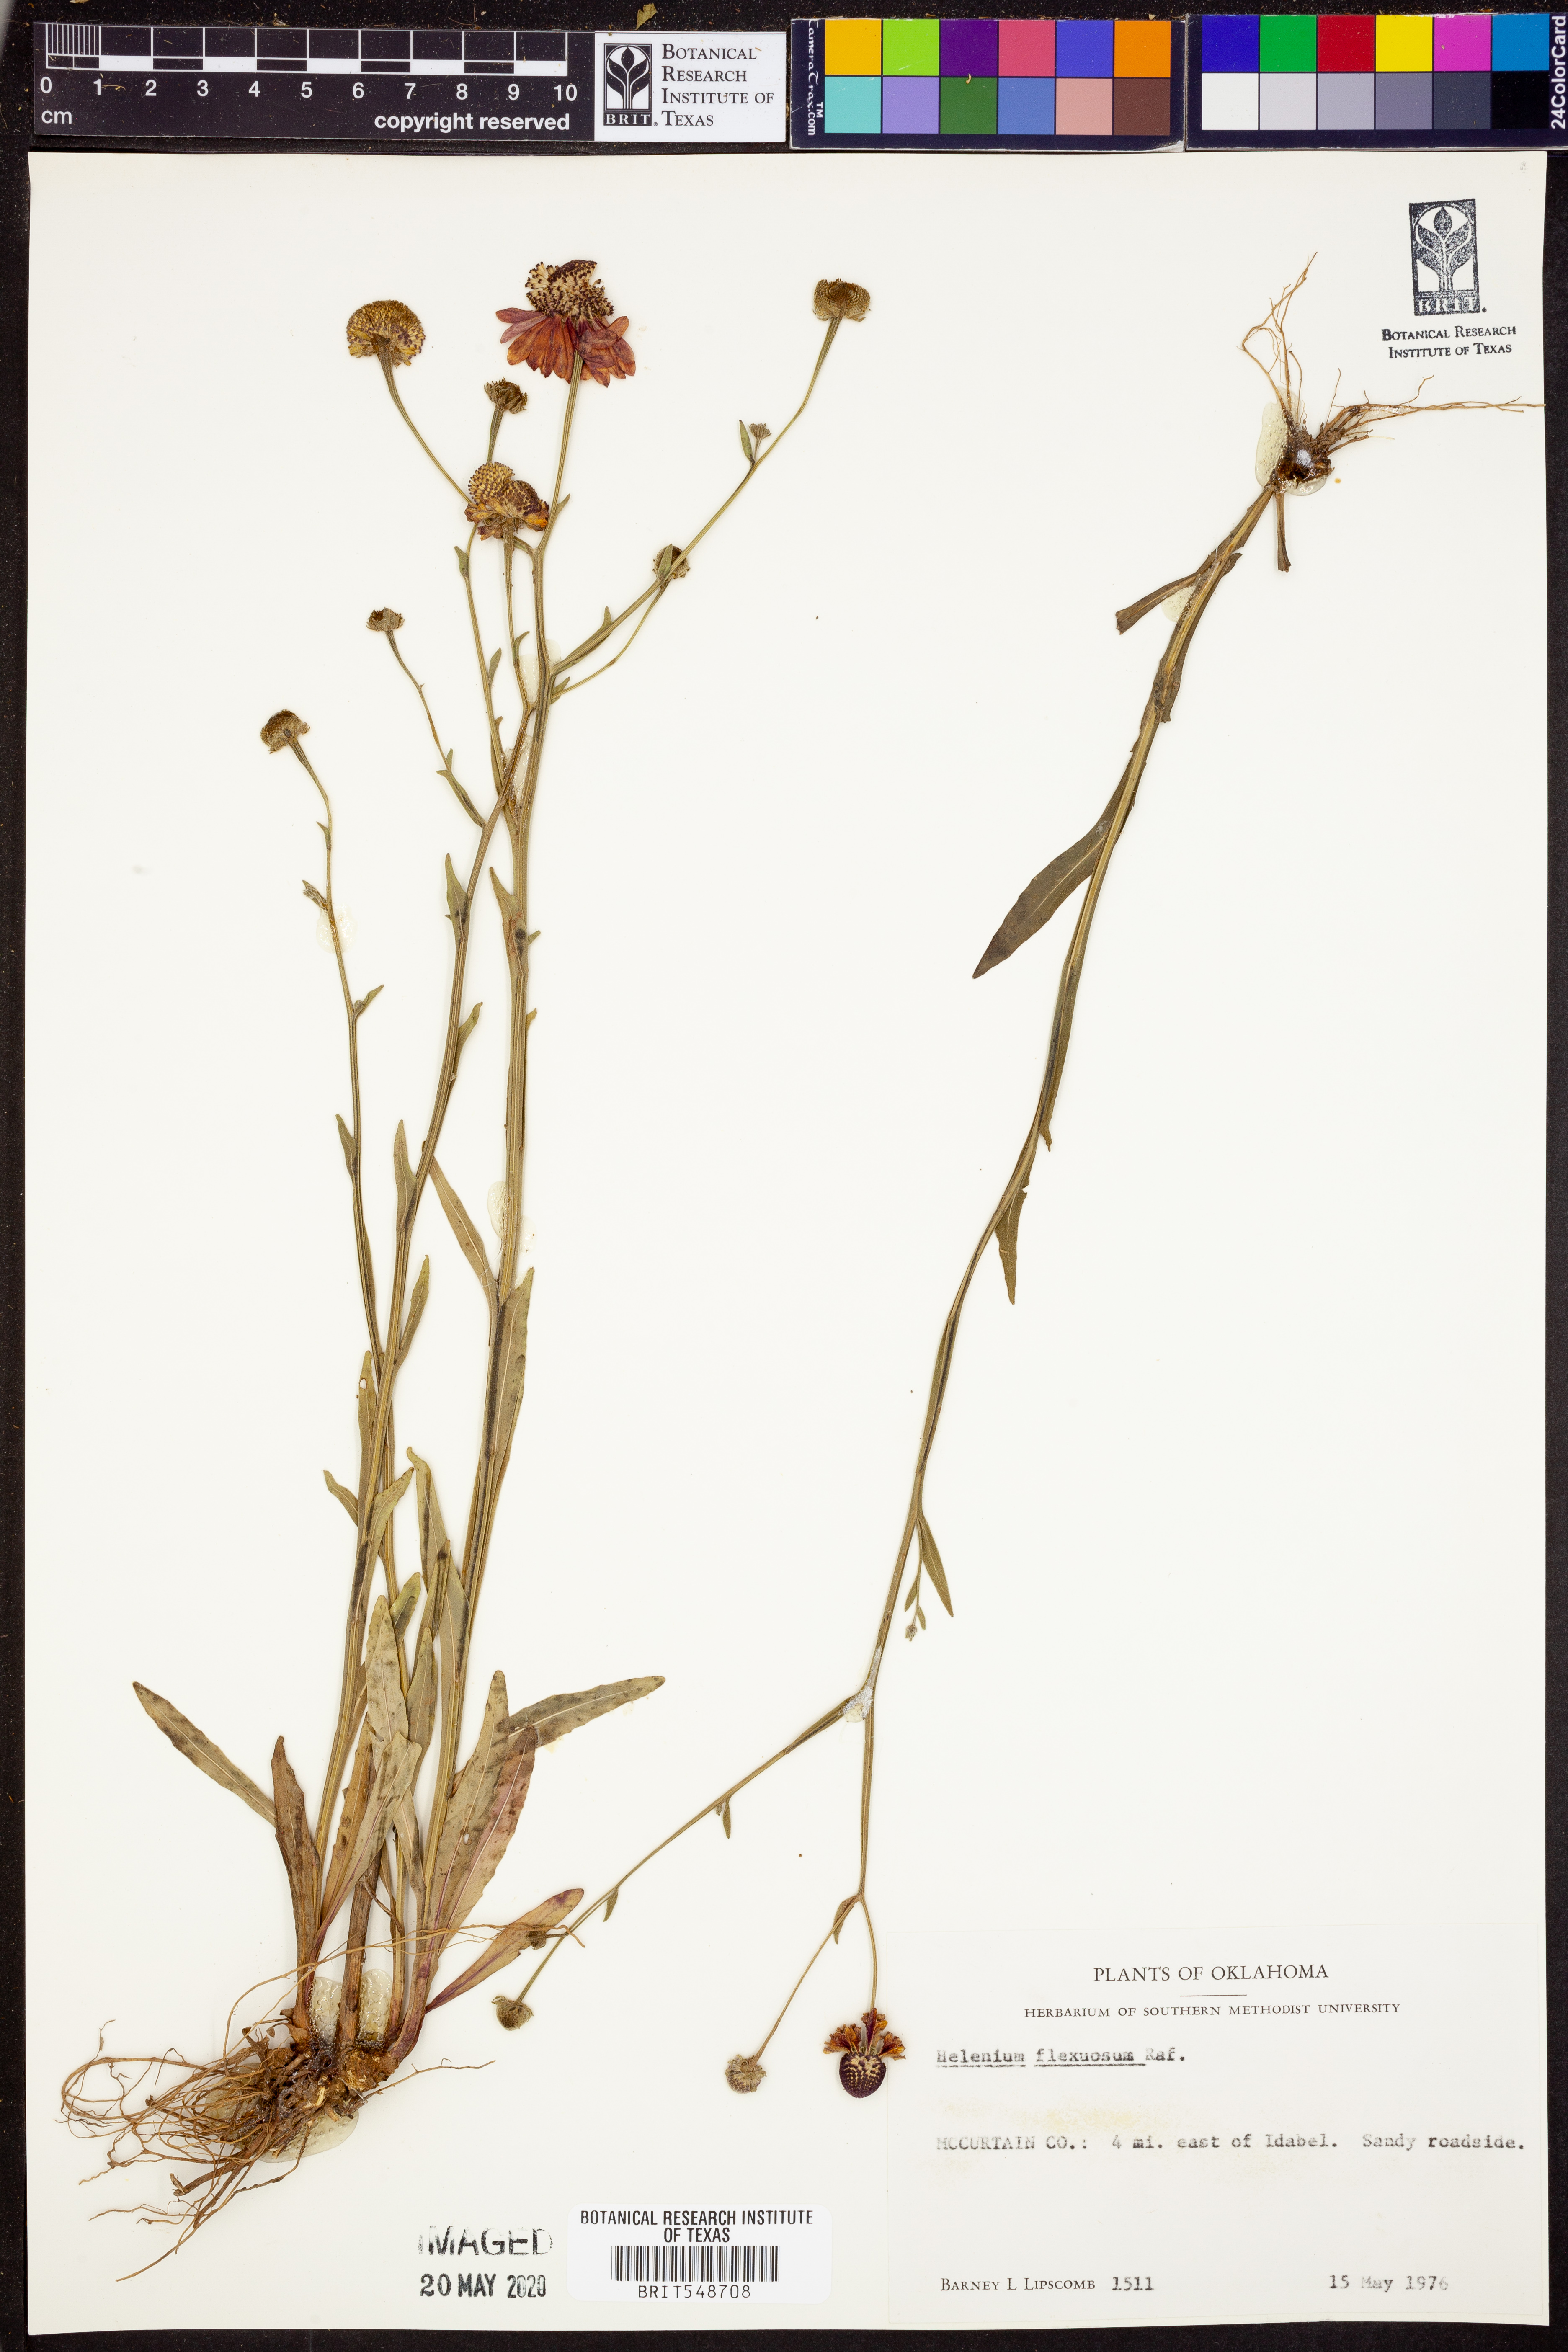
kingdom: Plantae
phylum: Tracheophyta
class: Magnoliopsida
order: Asterales
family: Asteraceae
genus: Helenium
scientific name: Helenium flexuosum
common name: Naked-flowered sneezeweed
